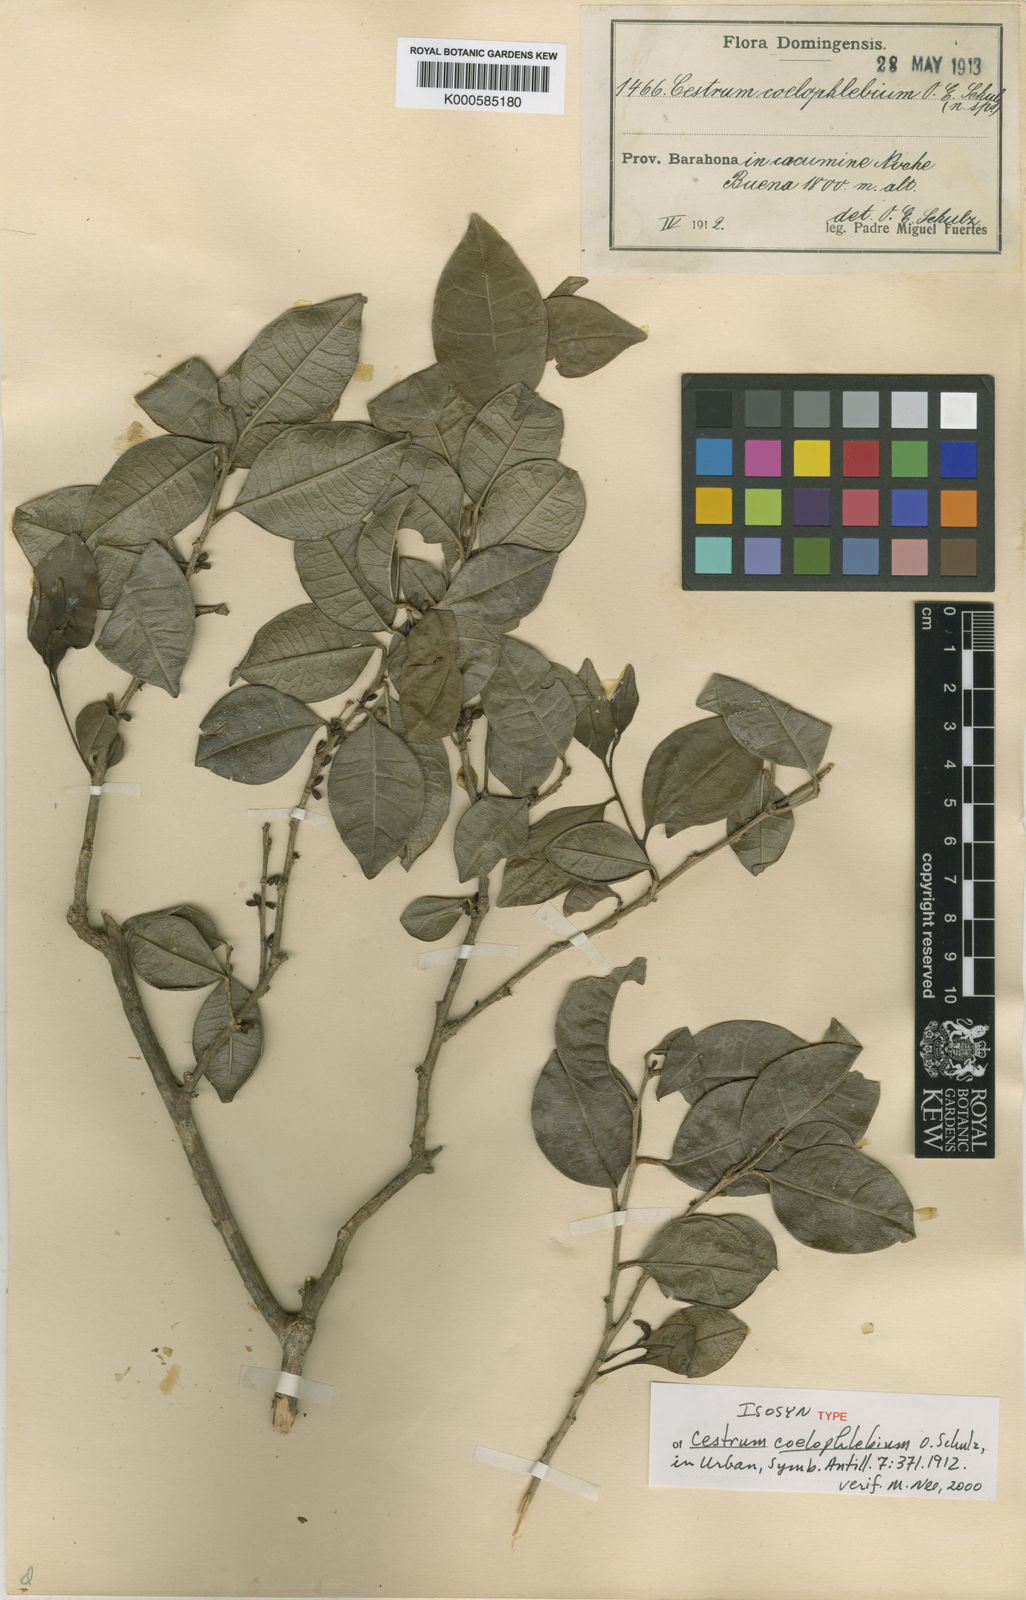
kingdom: Plantae
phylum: Tracheophyta
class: Magnoliopsida
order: Solanales
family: Solanaceae
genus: Cestrum
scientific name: Cestrum coelophlebium
